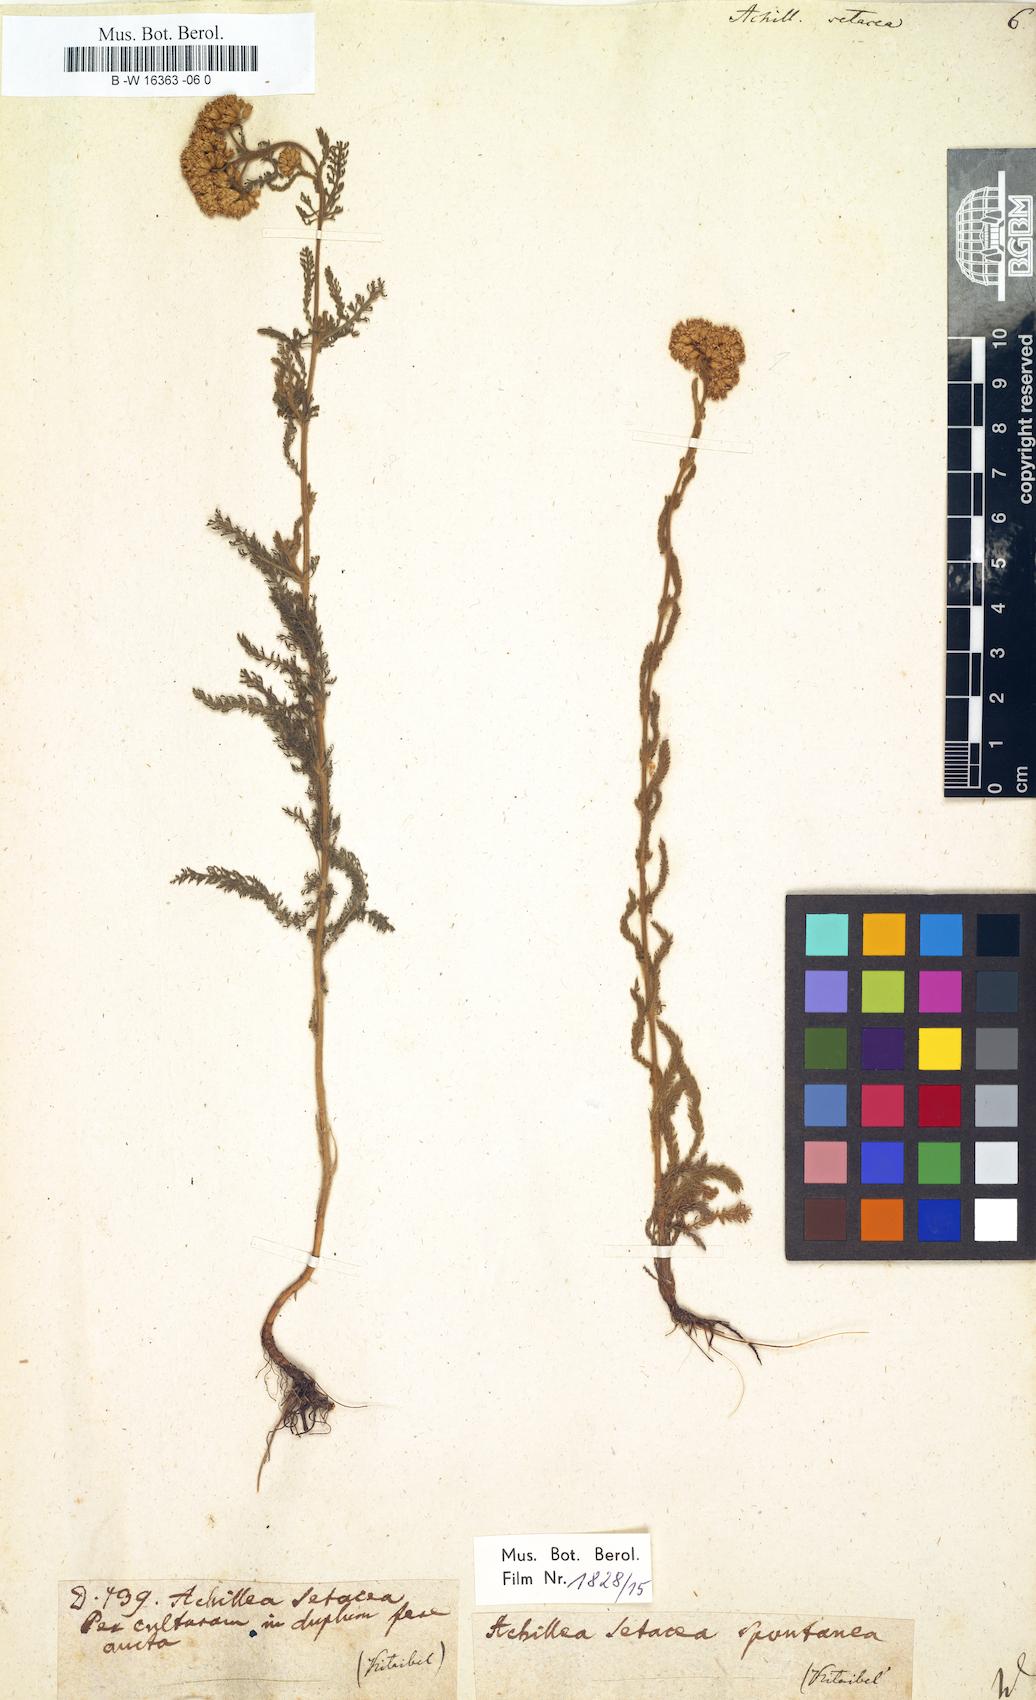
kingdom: Plantae
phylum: Tracheophyta
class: Magnoliopsida
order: Asterales
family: Asteraceae
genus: Achillea
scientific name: Achillea setacea
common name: Bristly yarrow
